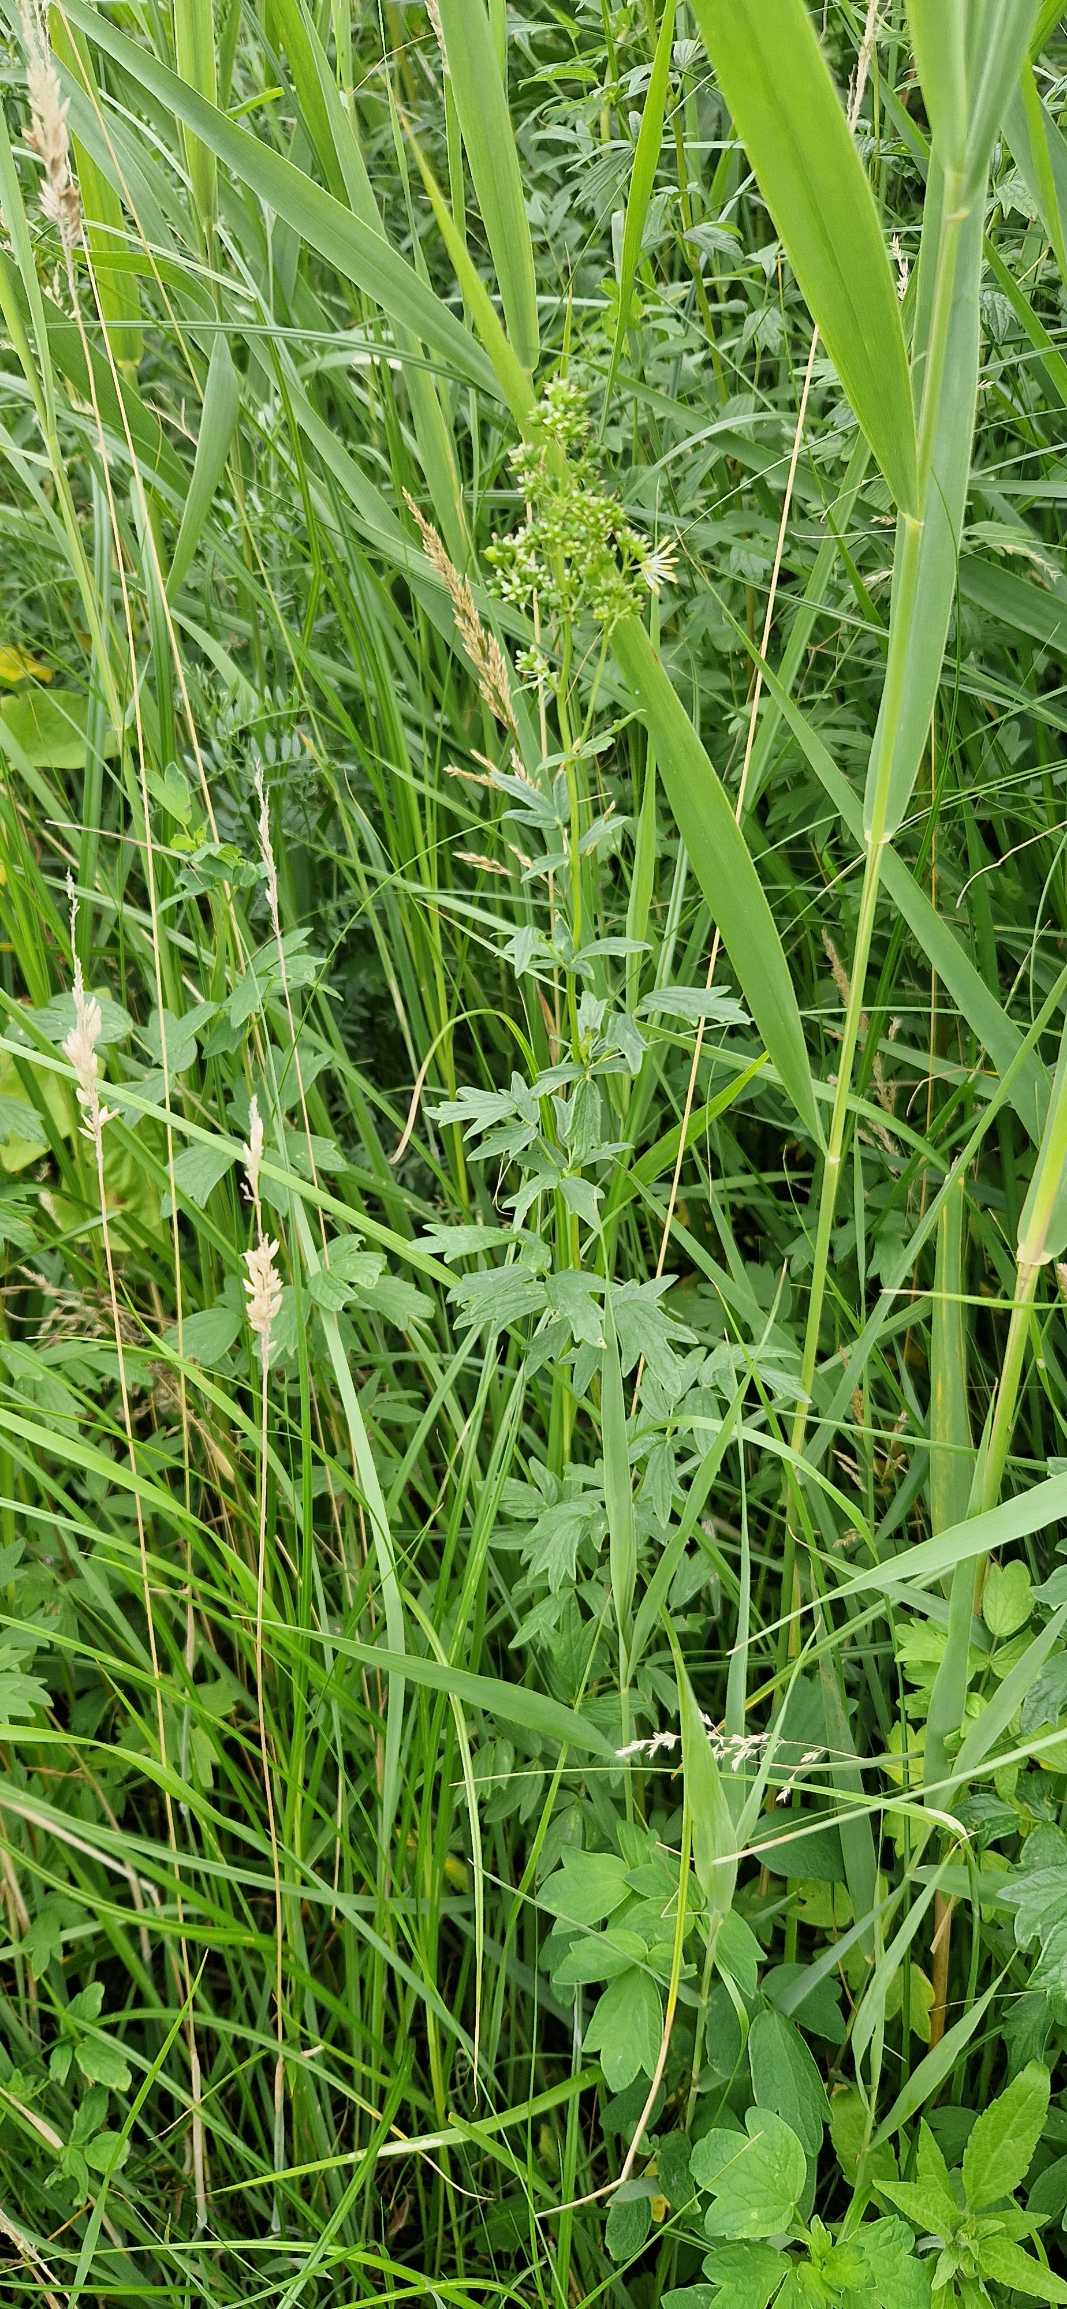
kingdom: Plantae
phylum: Tracheophyta
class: Magnoliopsida
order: Ranunculales
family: Ranunculaceae
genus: Thalictrum
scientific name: Thalictrum flavum
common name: Gul frøstjerne
